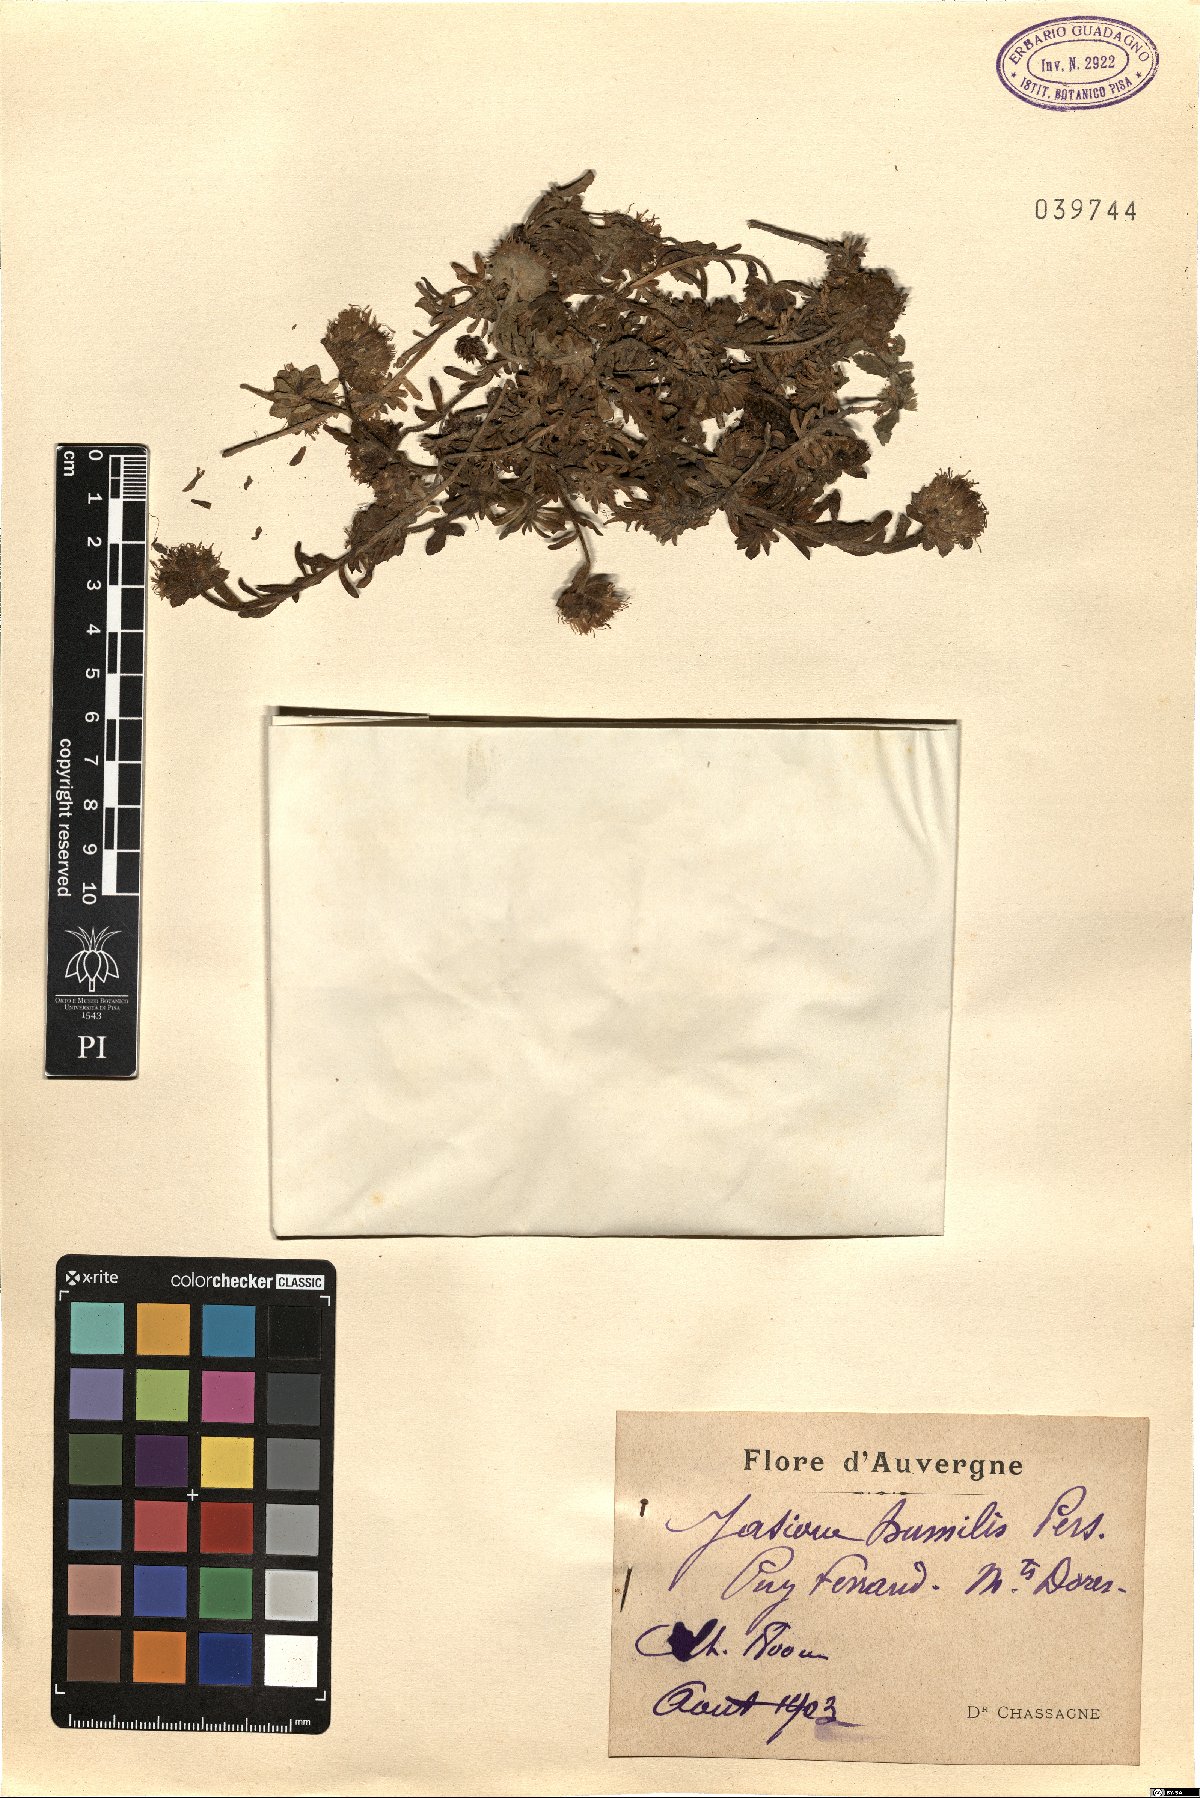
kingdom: Plantae
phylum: Tracheophyta
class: Magnoliopsida
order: Asterales
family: Campanulaceae
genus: Jasione
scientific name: Jasione crispa
